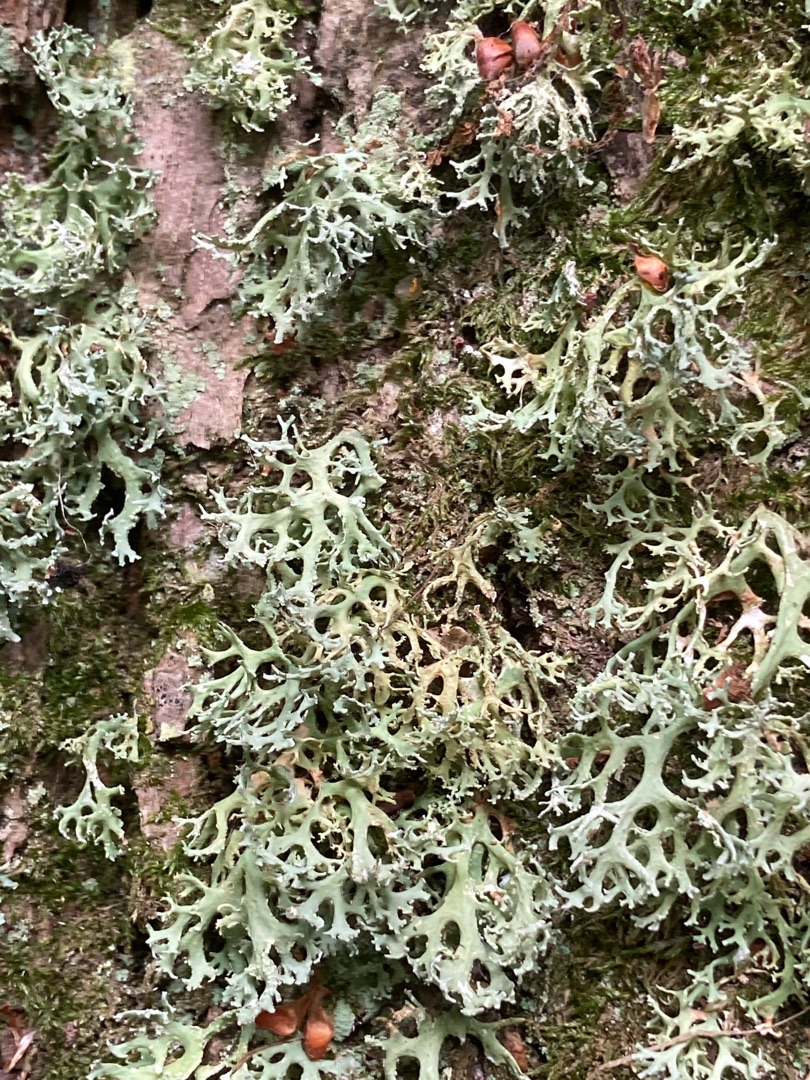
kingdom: Fungi
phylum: Ascomycota
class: Lecanoromycetes
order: Lecanorales
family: Parmeliaceae
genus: Evernia
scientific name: Evernia prunastri
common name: Almindelig slåenlav
